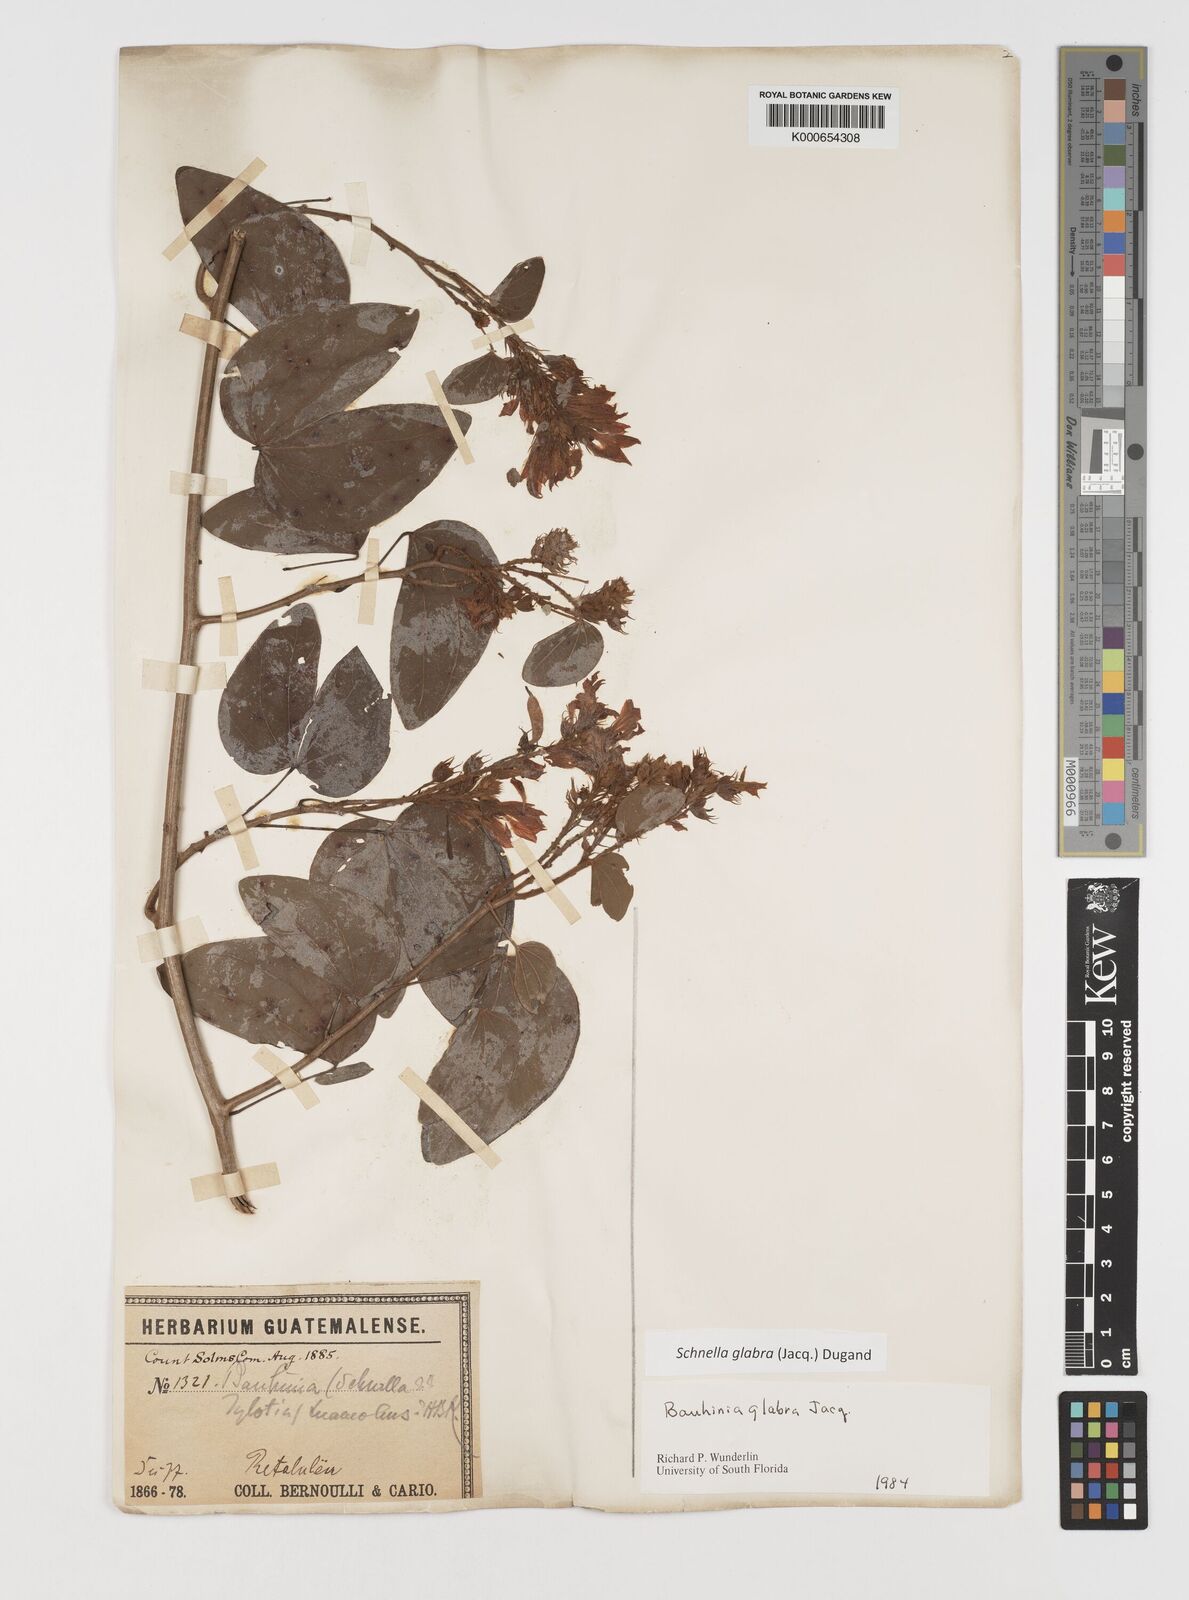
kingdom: Plantae
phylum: Tracheophyta
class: Magnoliopsida
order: Fabales
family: Fabaceae
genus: Schnella
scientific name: Schnella glabra
